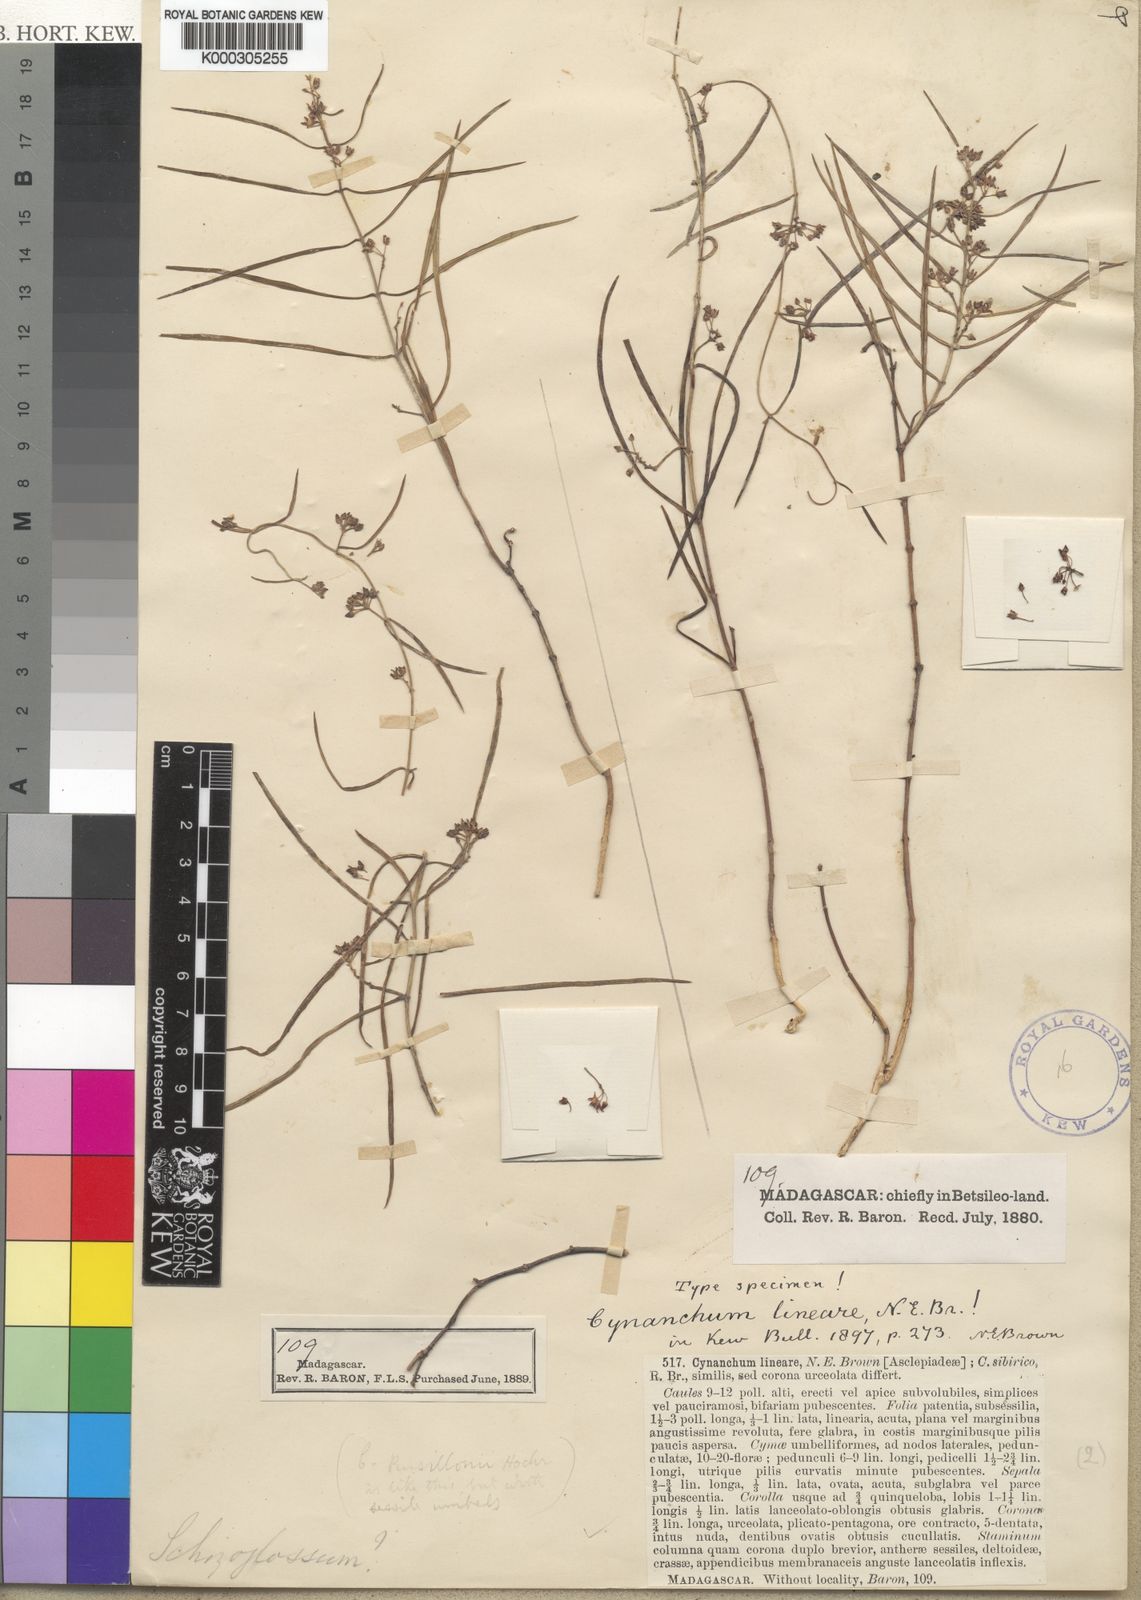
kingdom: Plantae
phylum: Tracheophyta
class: Magnoliopsida
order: Gentianales
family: Apocynaceae
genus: Cynanchum
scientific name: Cynanchum lineare
